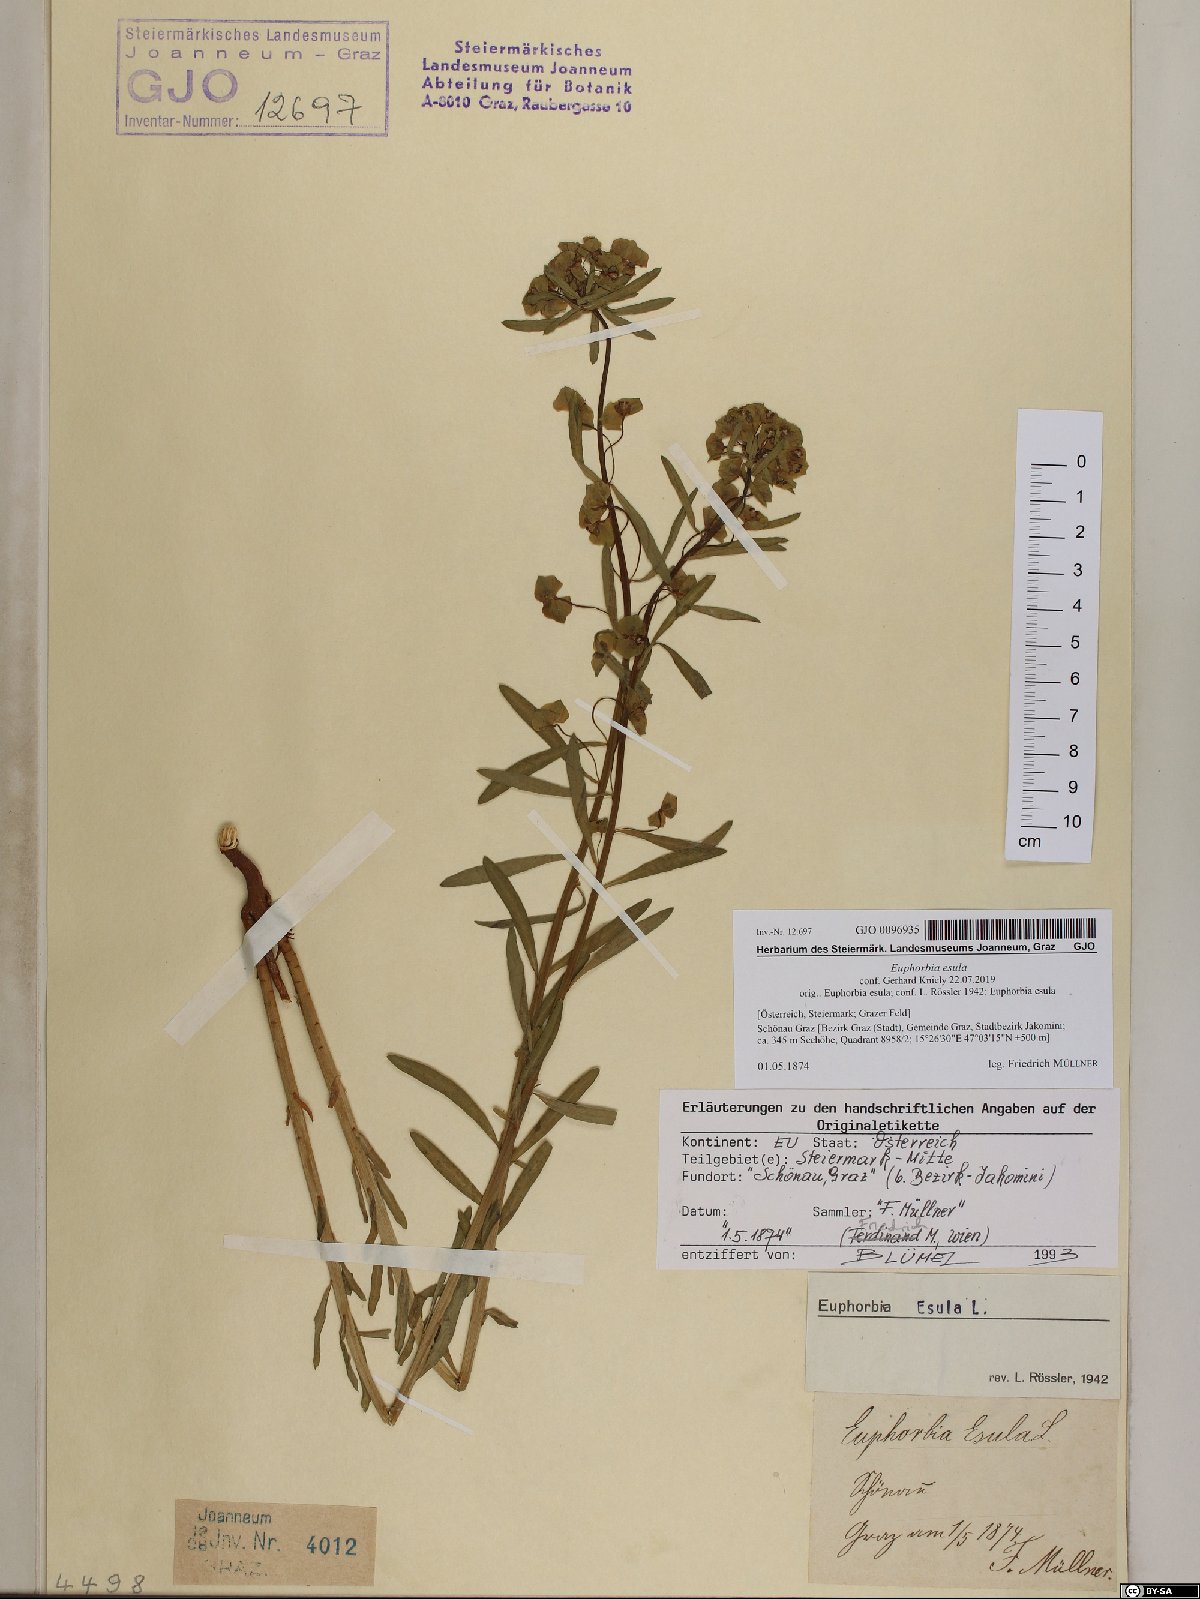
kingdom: Plantae
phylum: Tracheophyta
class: Magnoliopsida
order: Malpighiales
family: Euphorbiaceae
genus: Euphorbia
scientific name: Euphorbia esula
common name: Leafy spurge
